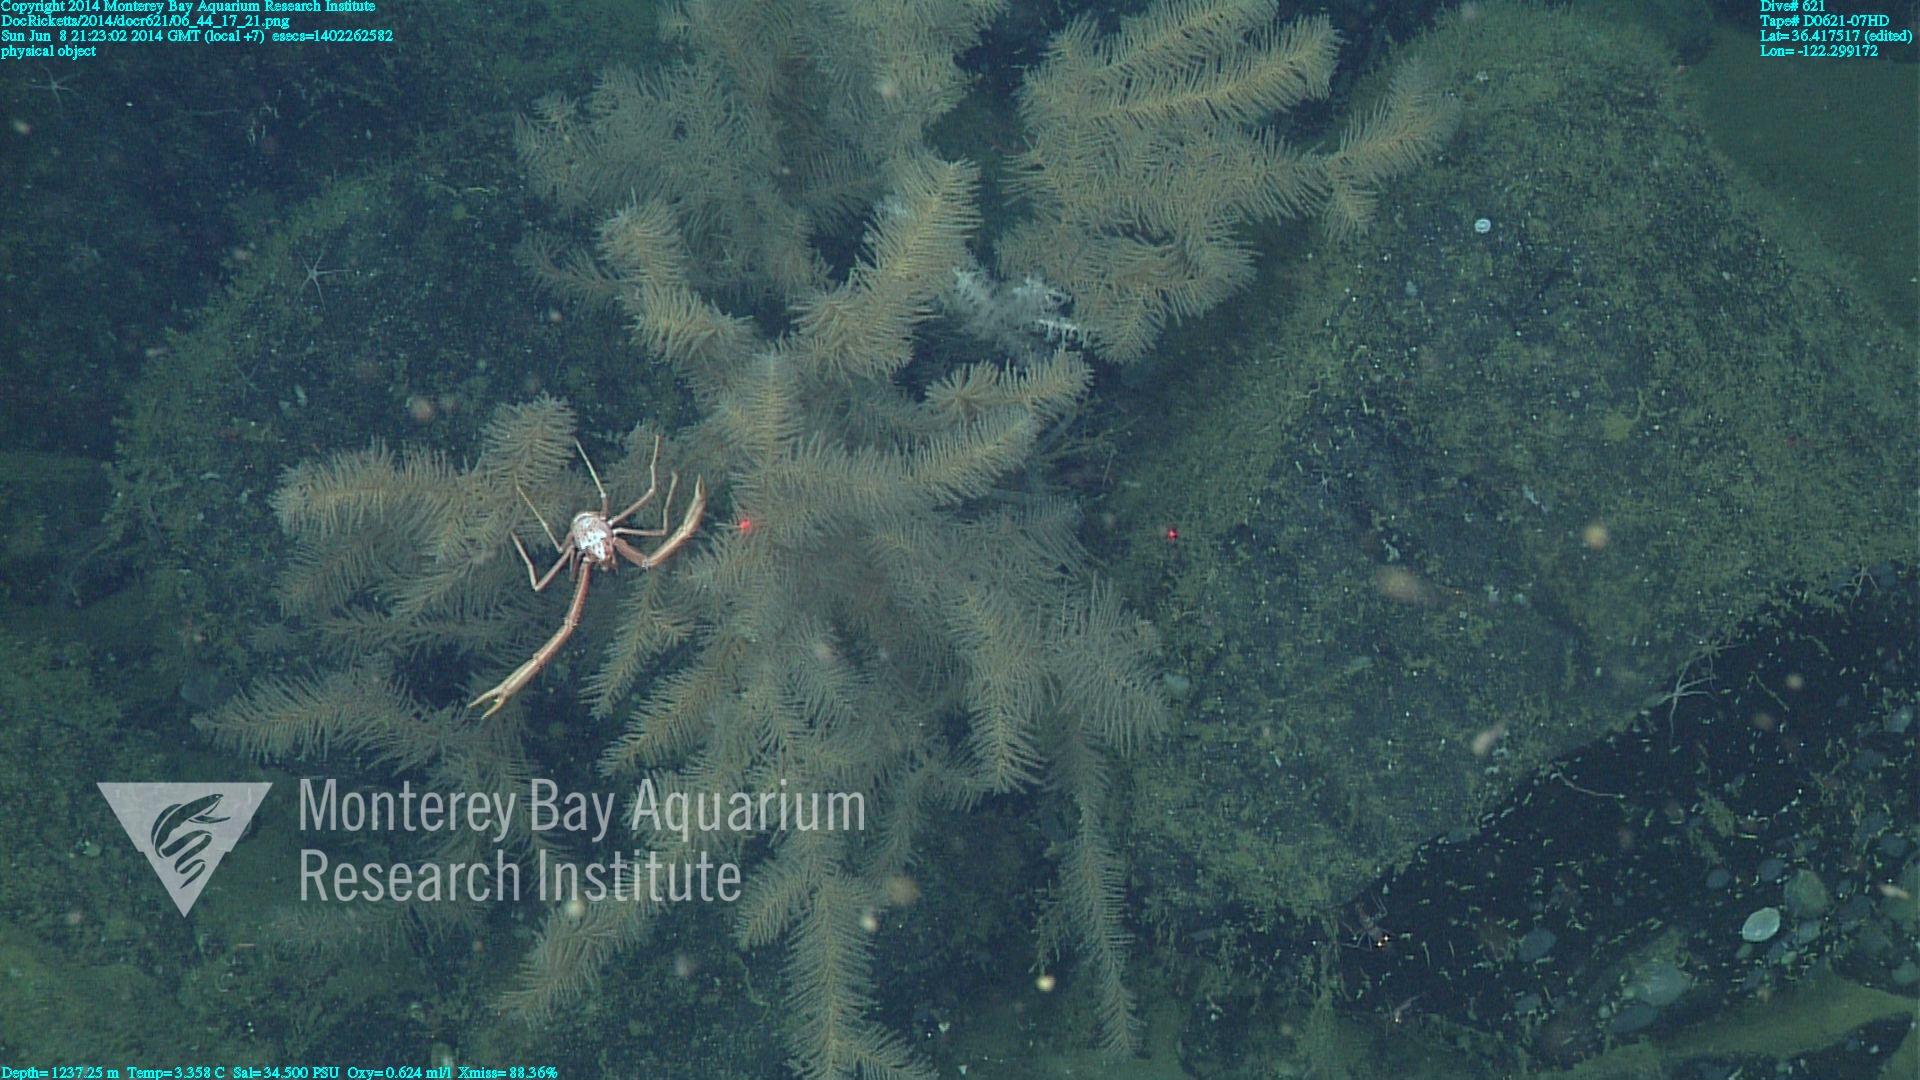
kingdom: Animalia
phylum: Cnidaria
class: Anthozoa
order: Antipatharia
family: Schizopathidae
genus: Lillipathes
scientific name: Lillipathes
